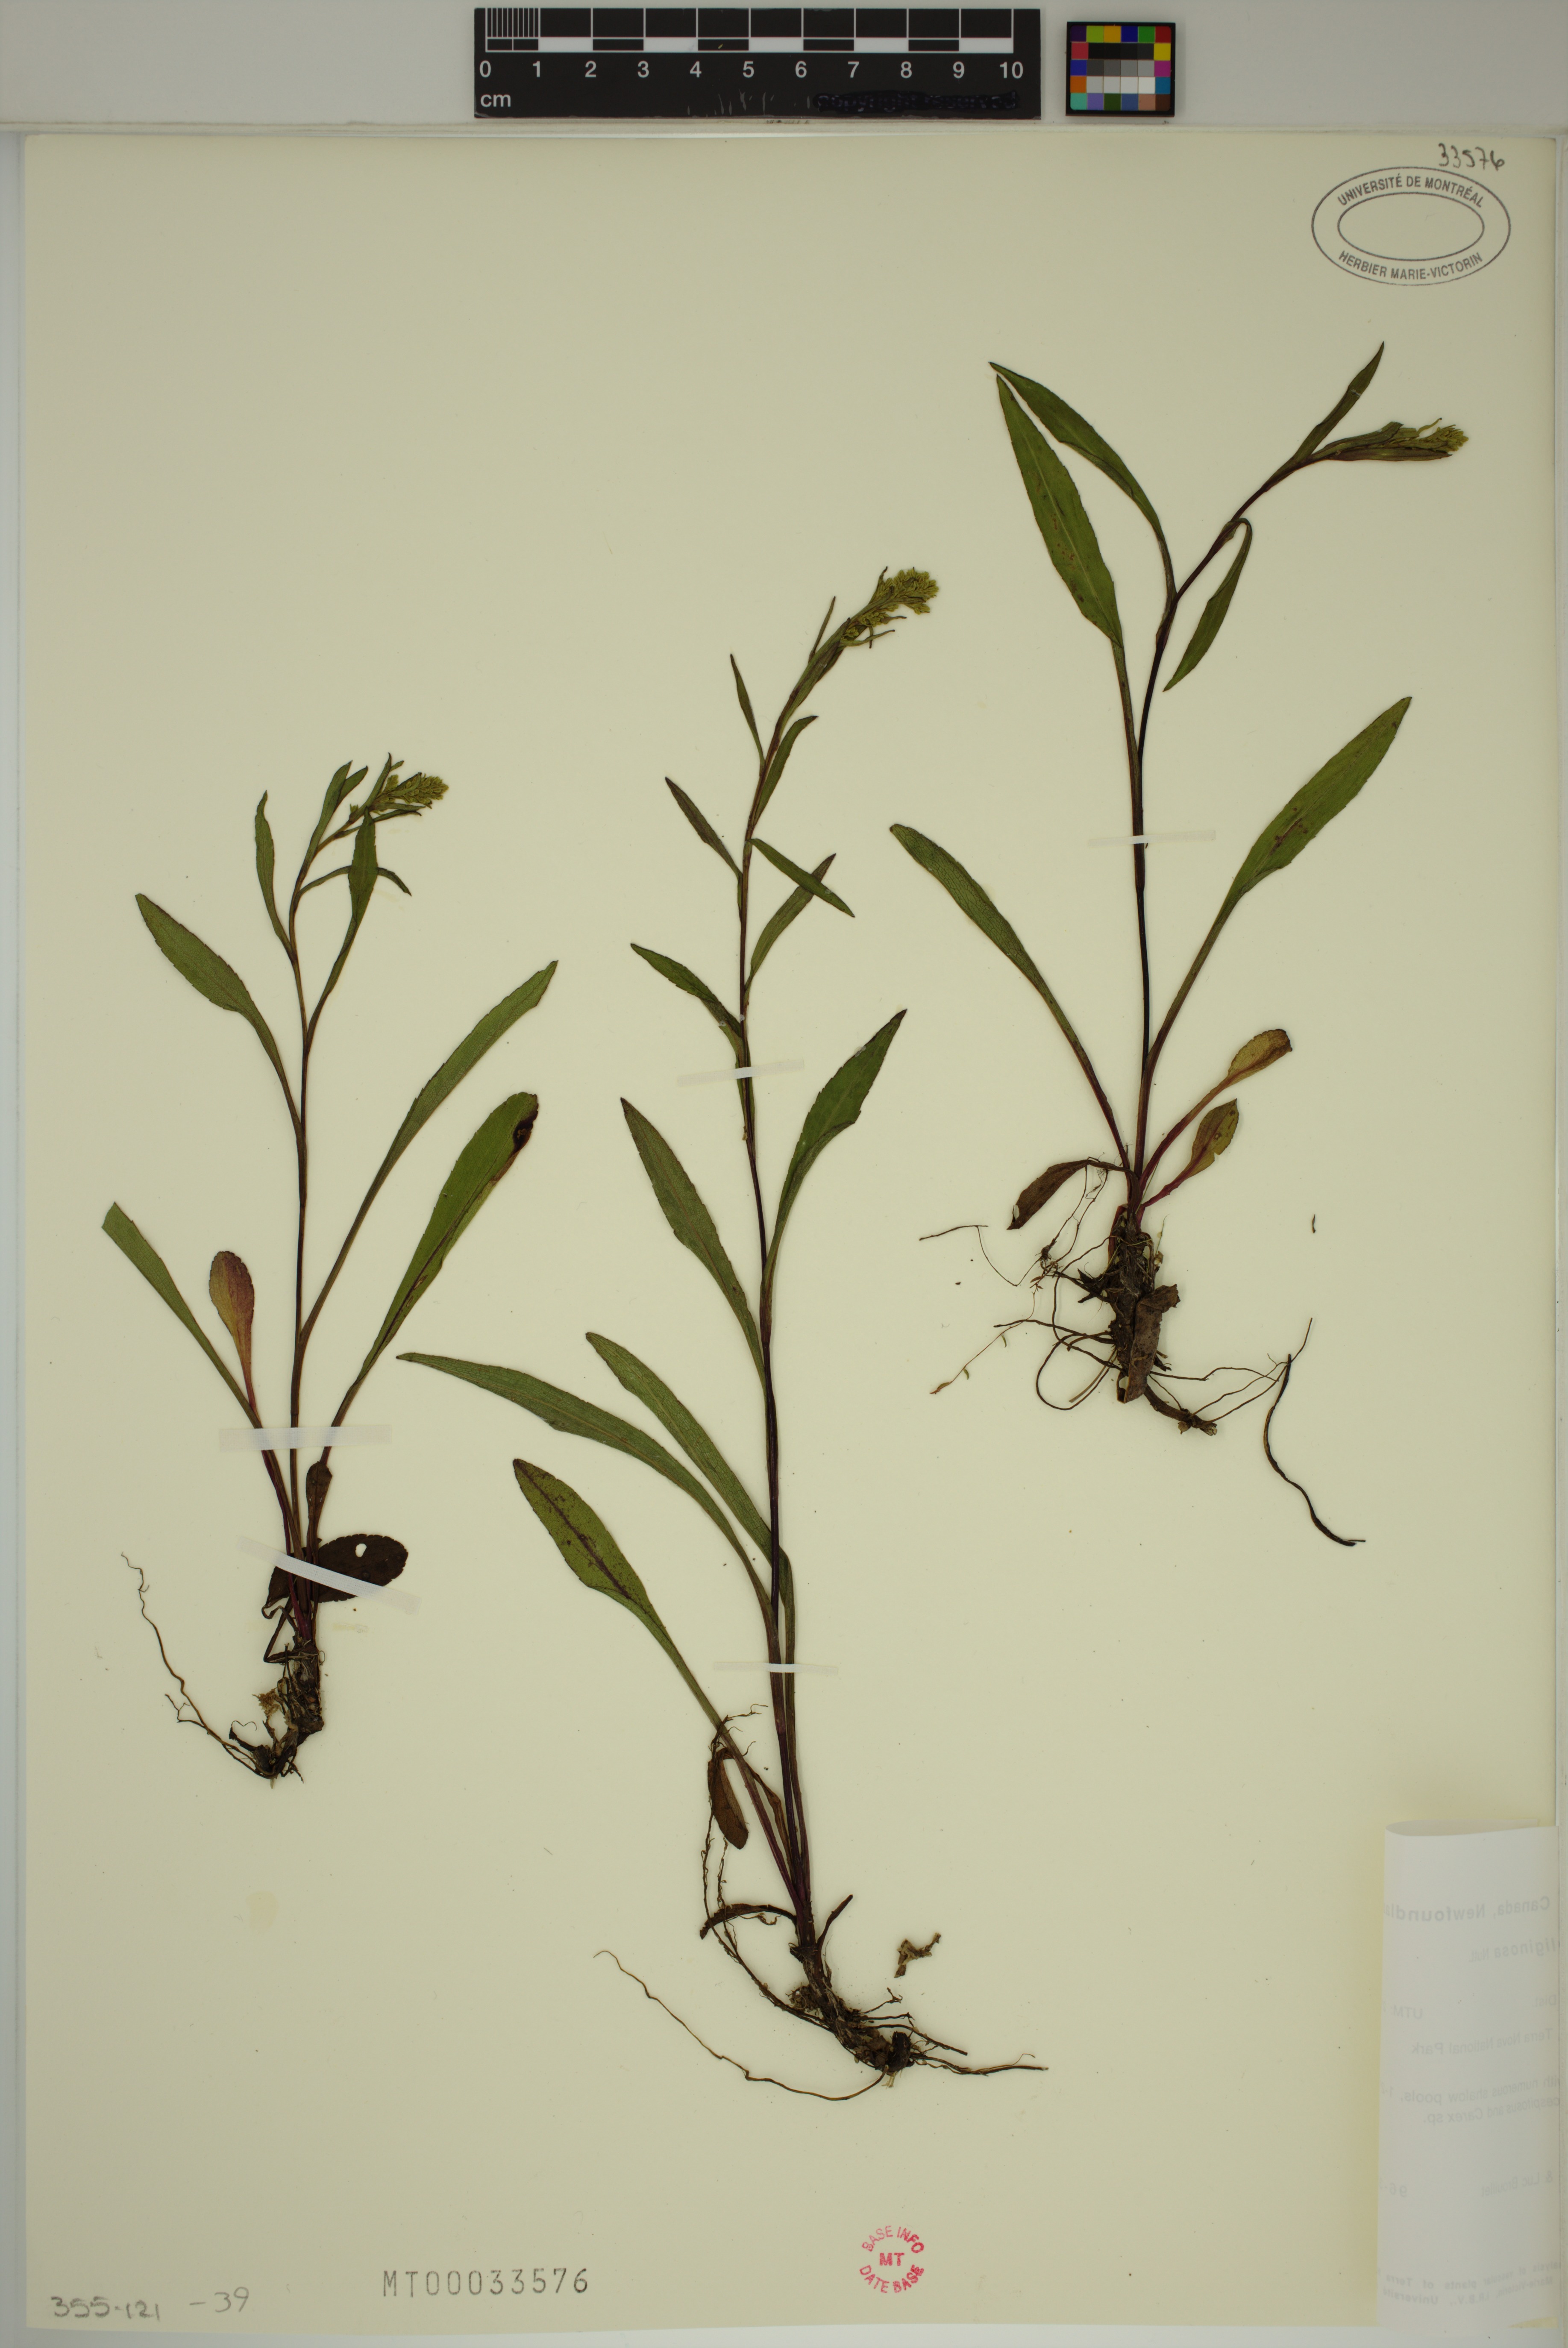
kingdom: Plantae
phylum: Tracheophyta
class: Magnoliopsida
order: Asterales
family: Asteraceae
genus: Solidago
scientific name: Solidago uliginosa
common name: Bog goldenrod
